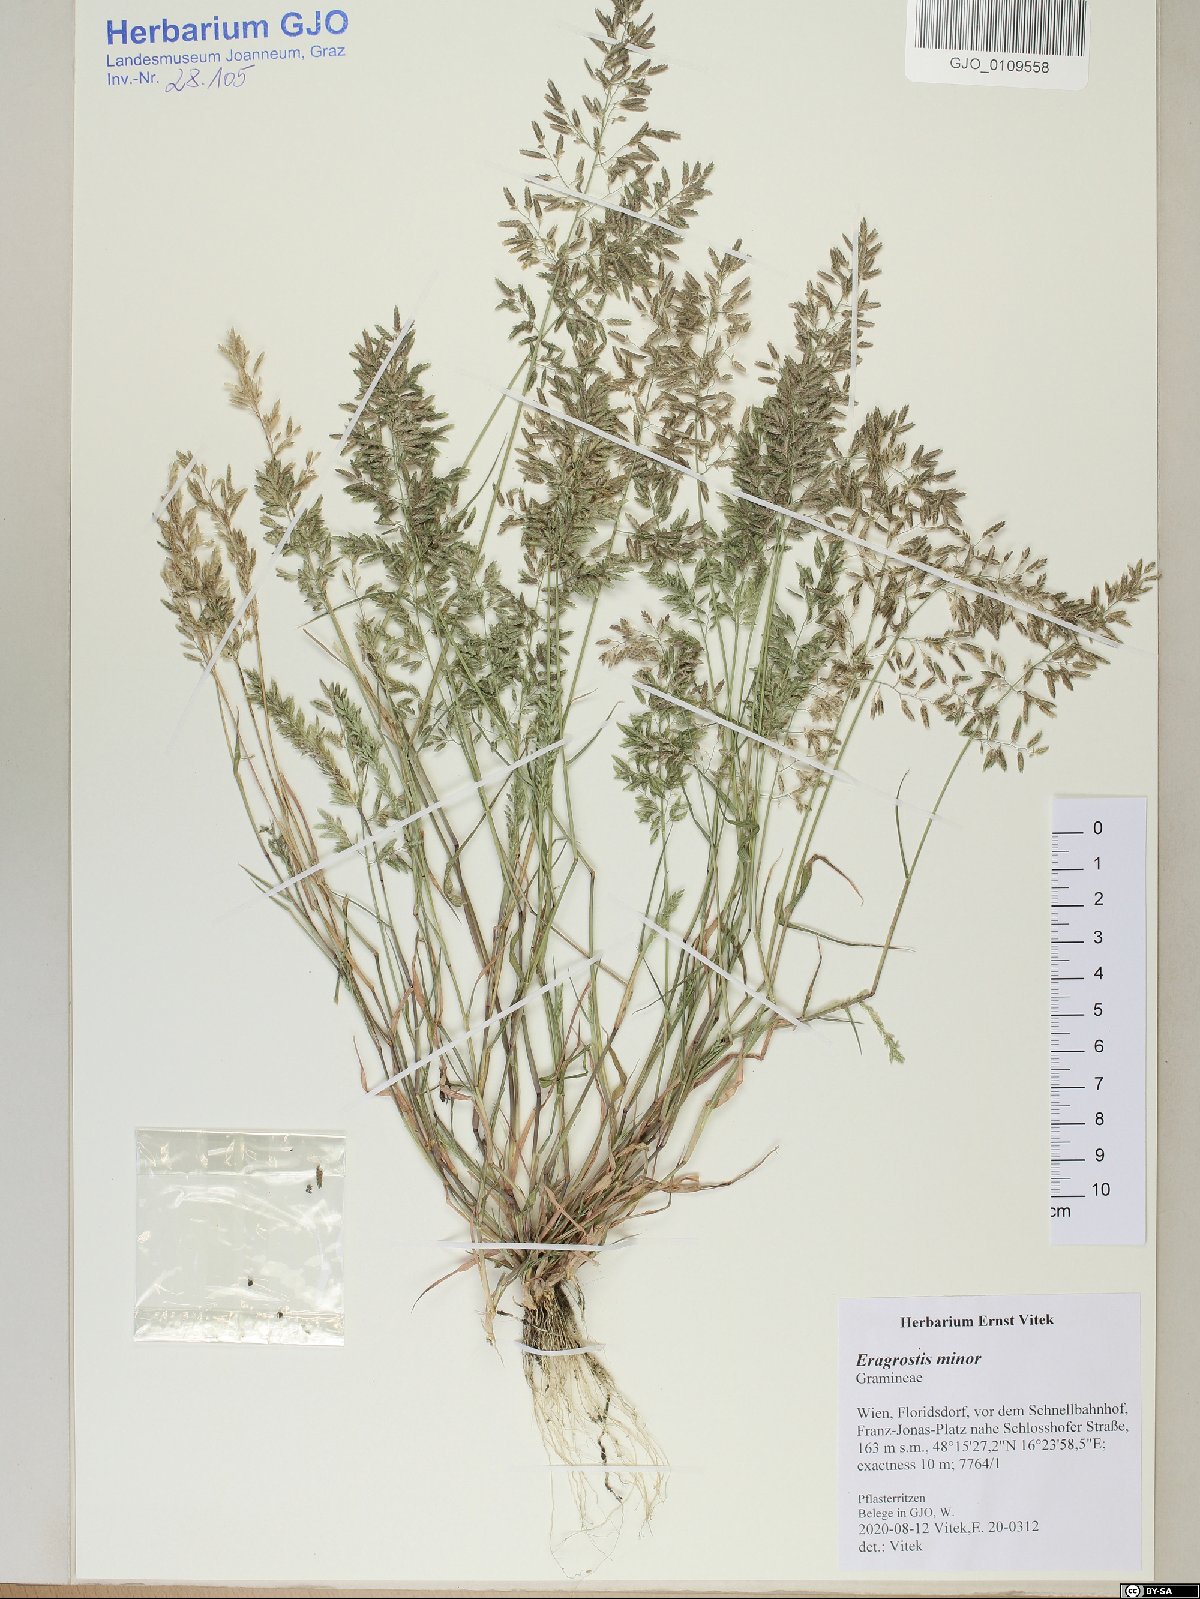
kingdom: Plantae
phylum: Tracheophyta
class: Liliopsida
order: Poales
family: Poaceae
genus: Eragrostis
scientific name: Eragrostis minor
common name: Small love-grass
